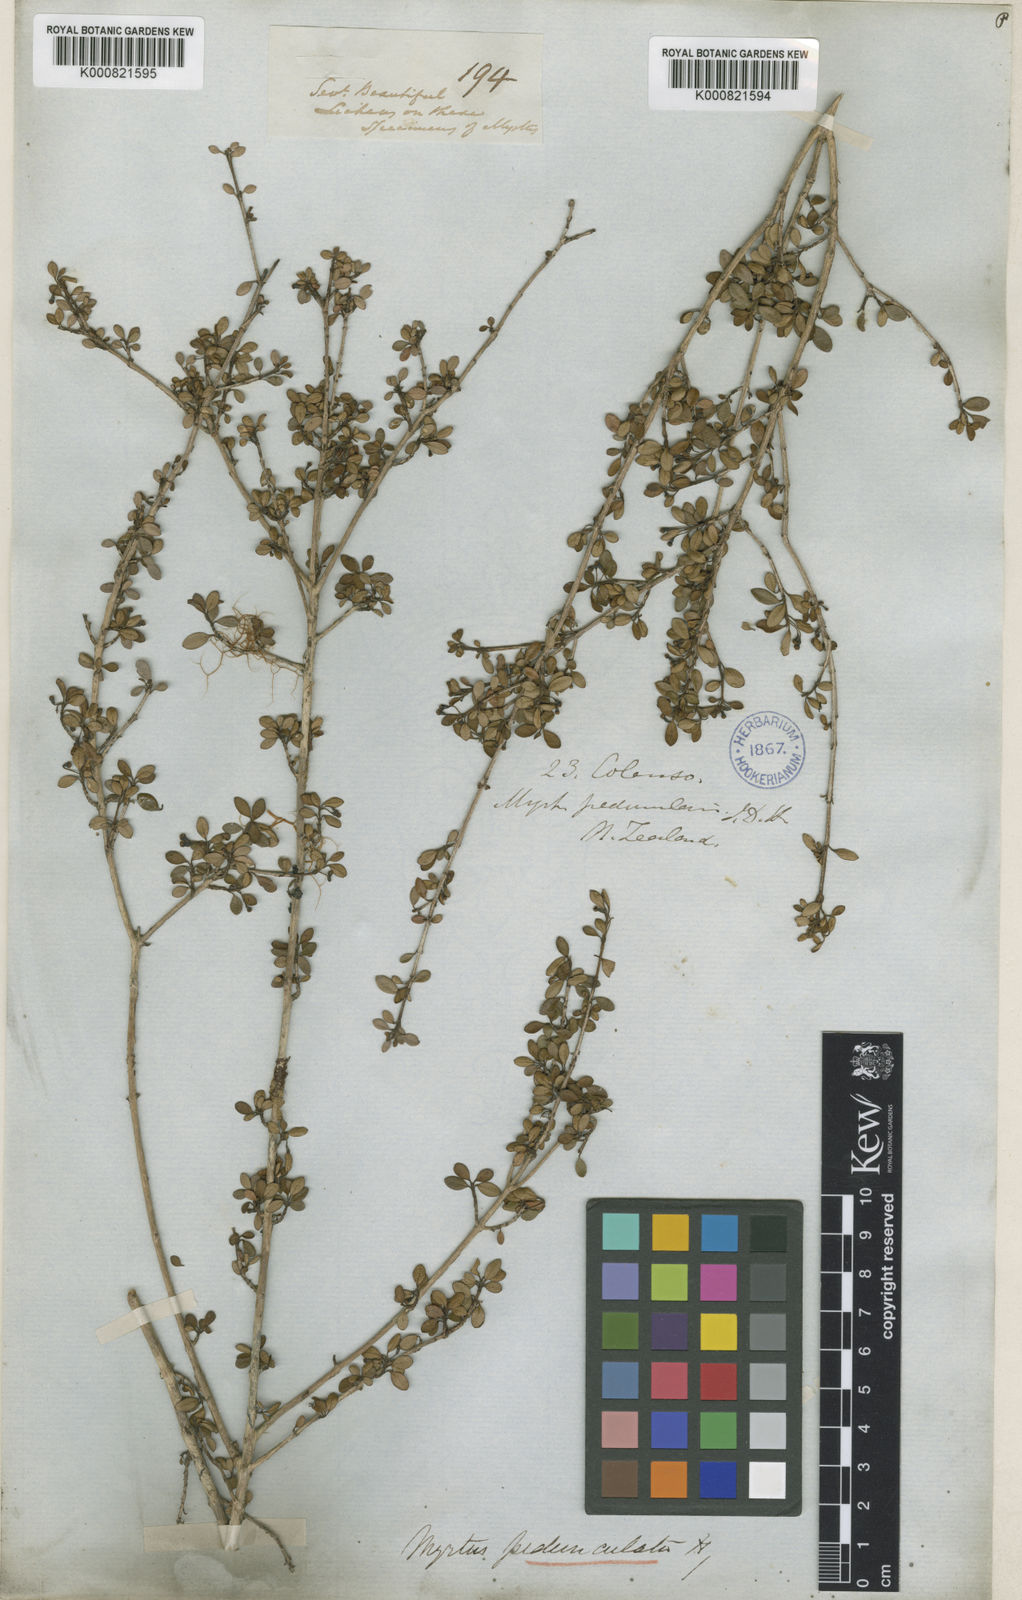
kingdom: Plantae
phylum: Tracheophyta
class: Magnoliopsida
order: Myrtales
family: Myrtaceae
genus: Neomyrtus
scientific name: Neomyrtus pedunculata
